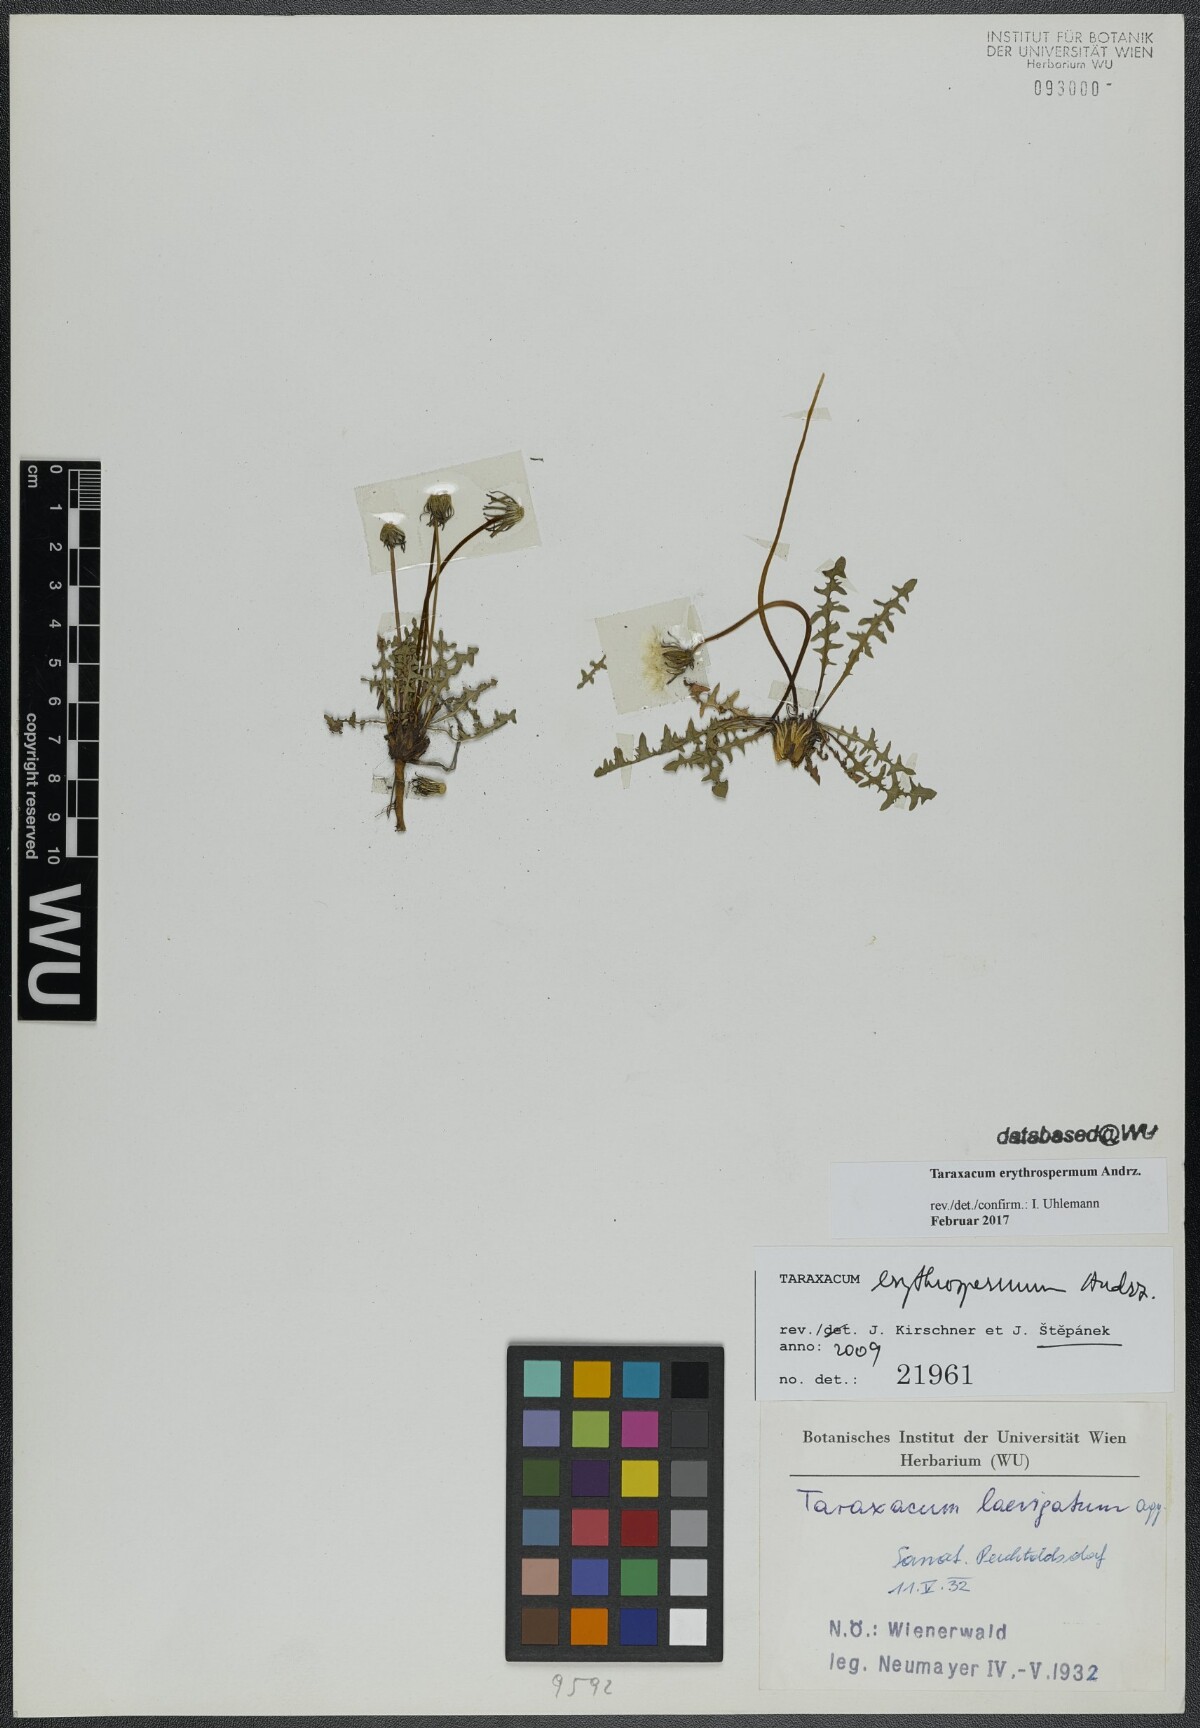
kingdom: Plantae
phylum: Tracheophyta
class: Magnoliopsida
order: Asterales
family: Asteraceae
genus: Taraxacum
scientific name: Taraxacum erythrospermum
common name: Rock dandelion
